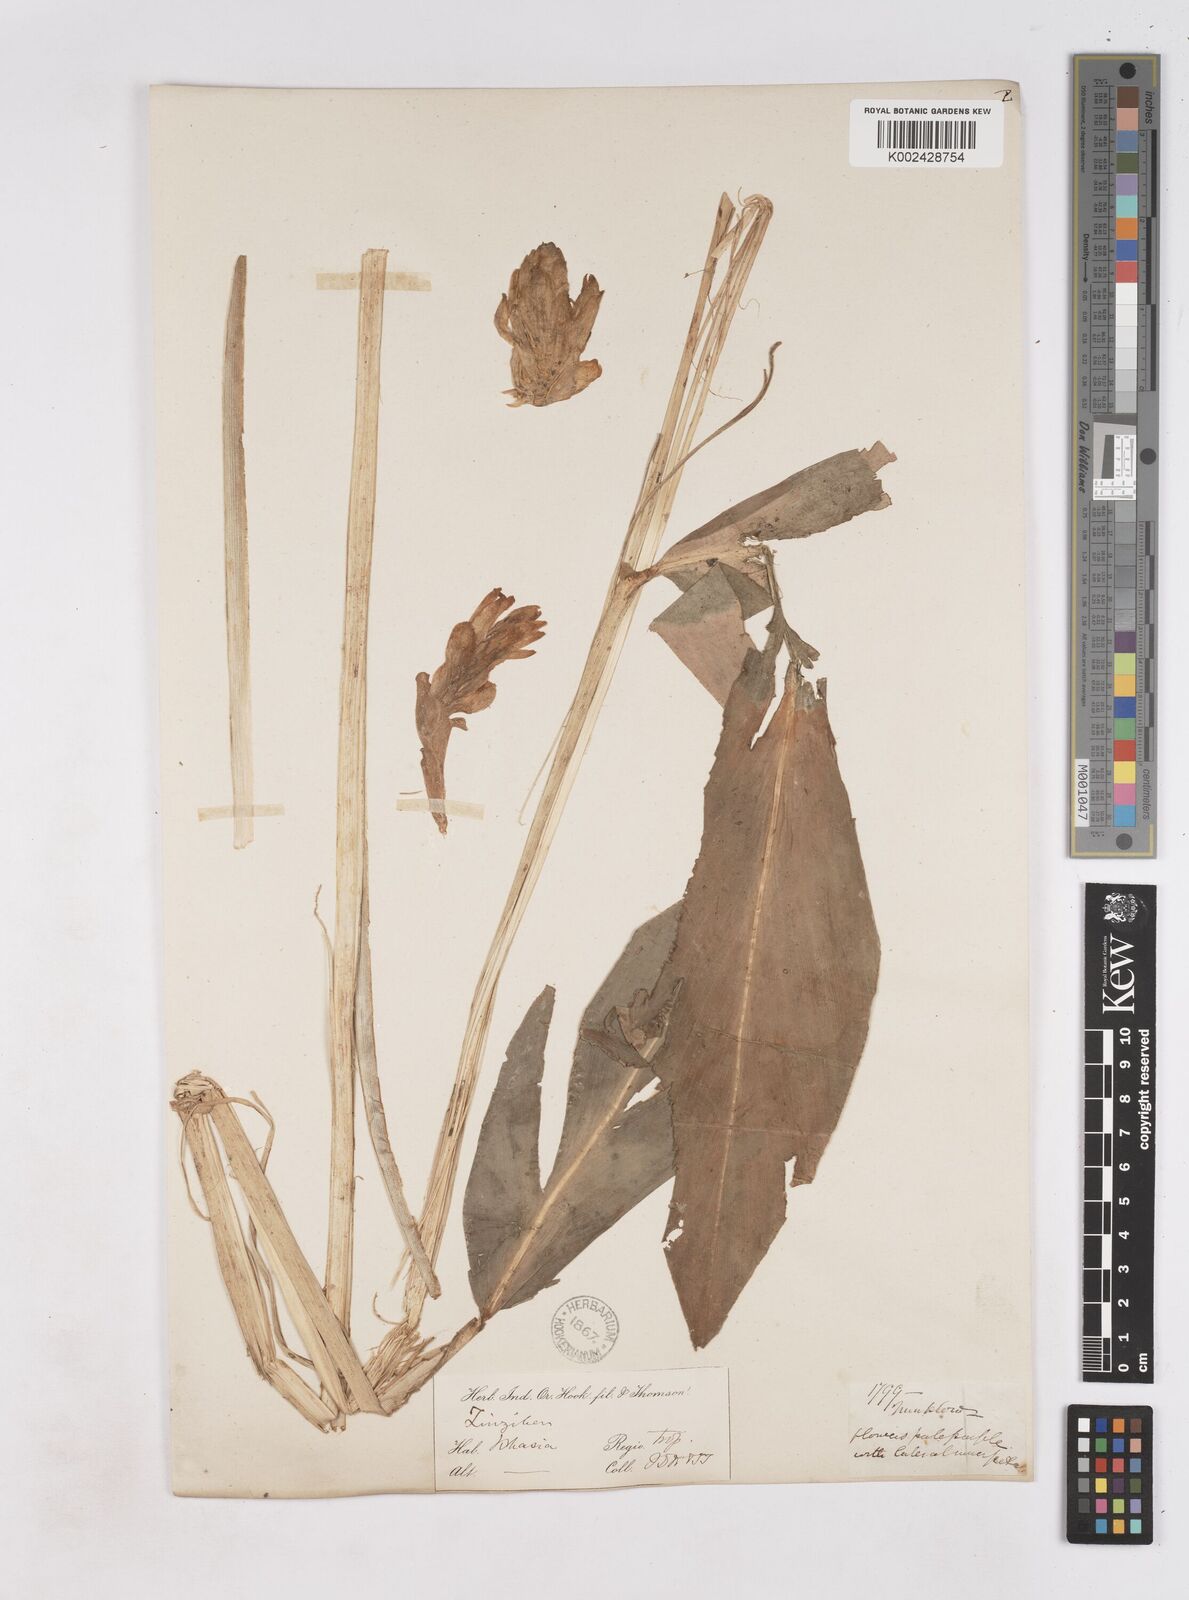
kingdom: Plantae
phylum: Tracheophyta
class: Liliopsida
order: Zingiberales
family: Zingiberaceae
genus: Zingiber
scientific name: Zingiber
